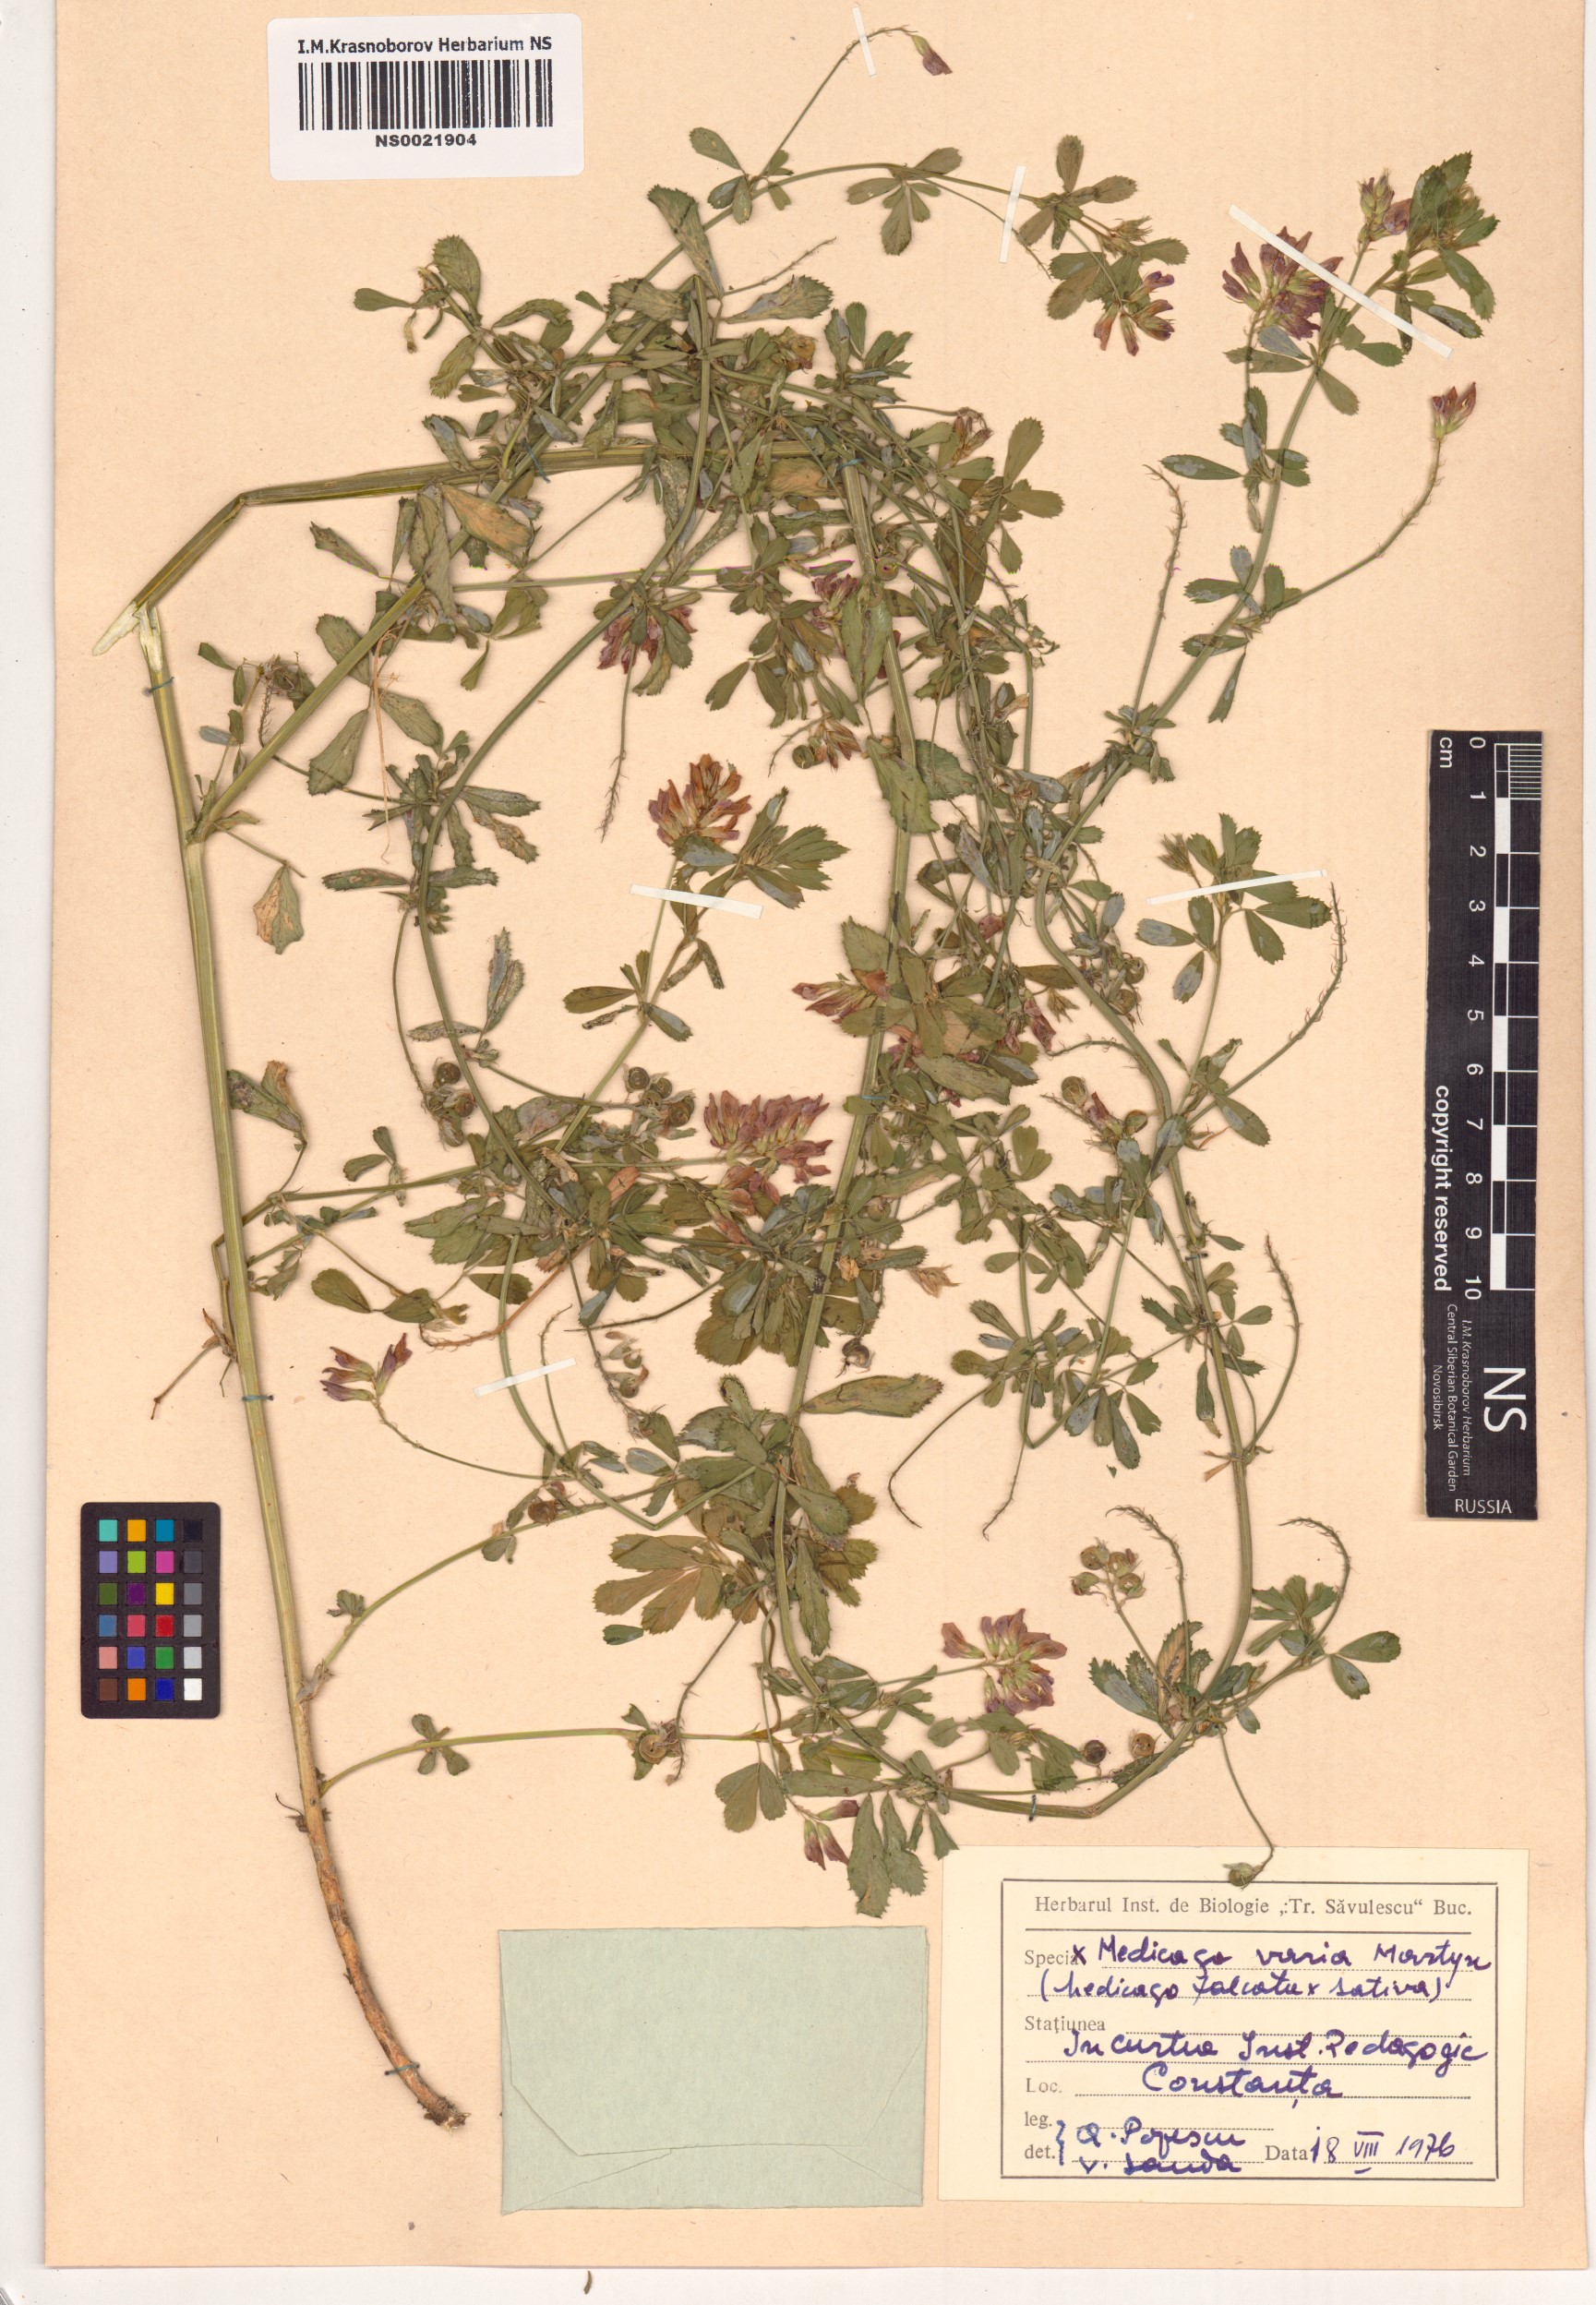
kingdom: Plantae
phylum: Tracheophyta
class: Magnoliopsida
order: Fabales
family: Fabaceae
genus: Medicago
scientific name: Medicago varia
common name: Sand lucerne
